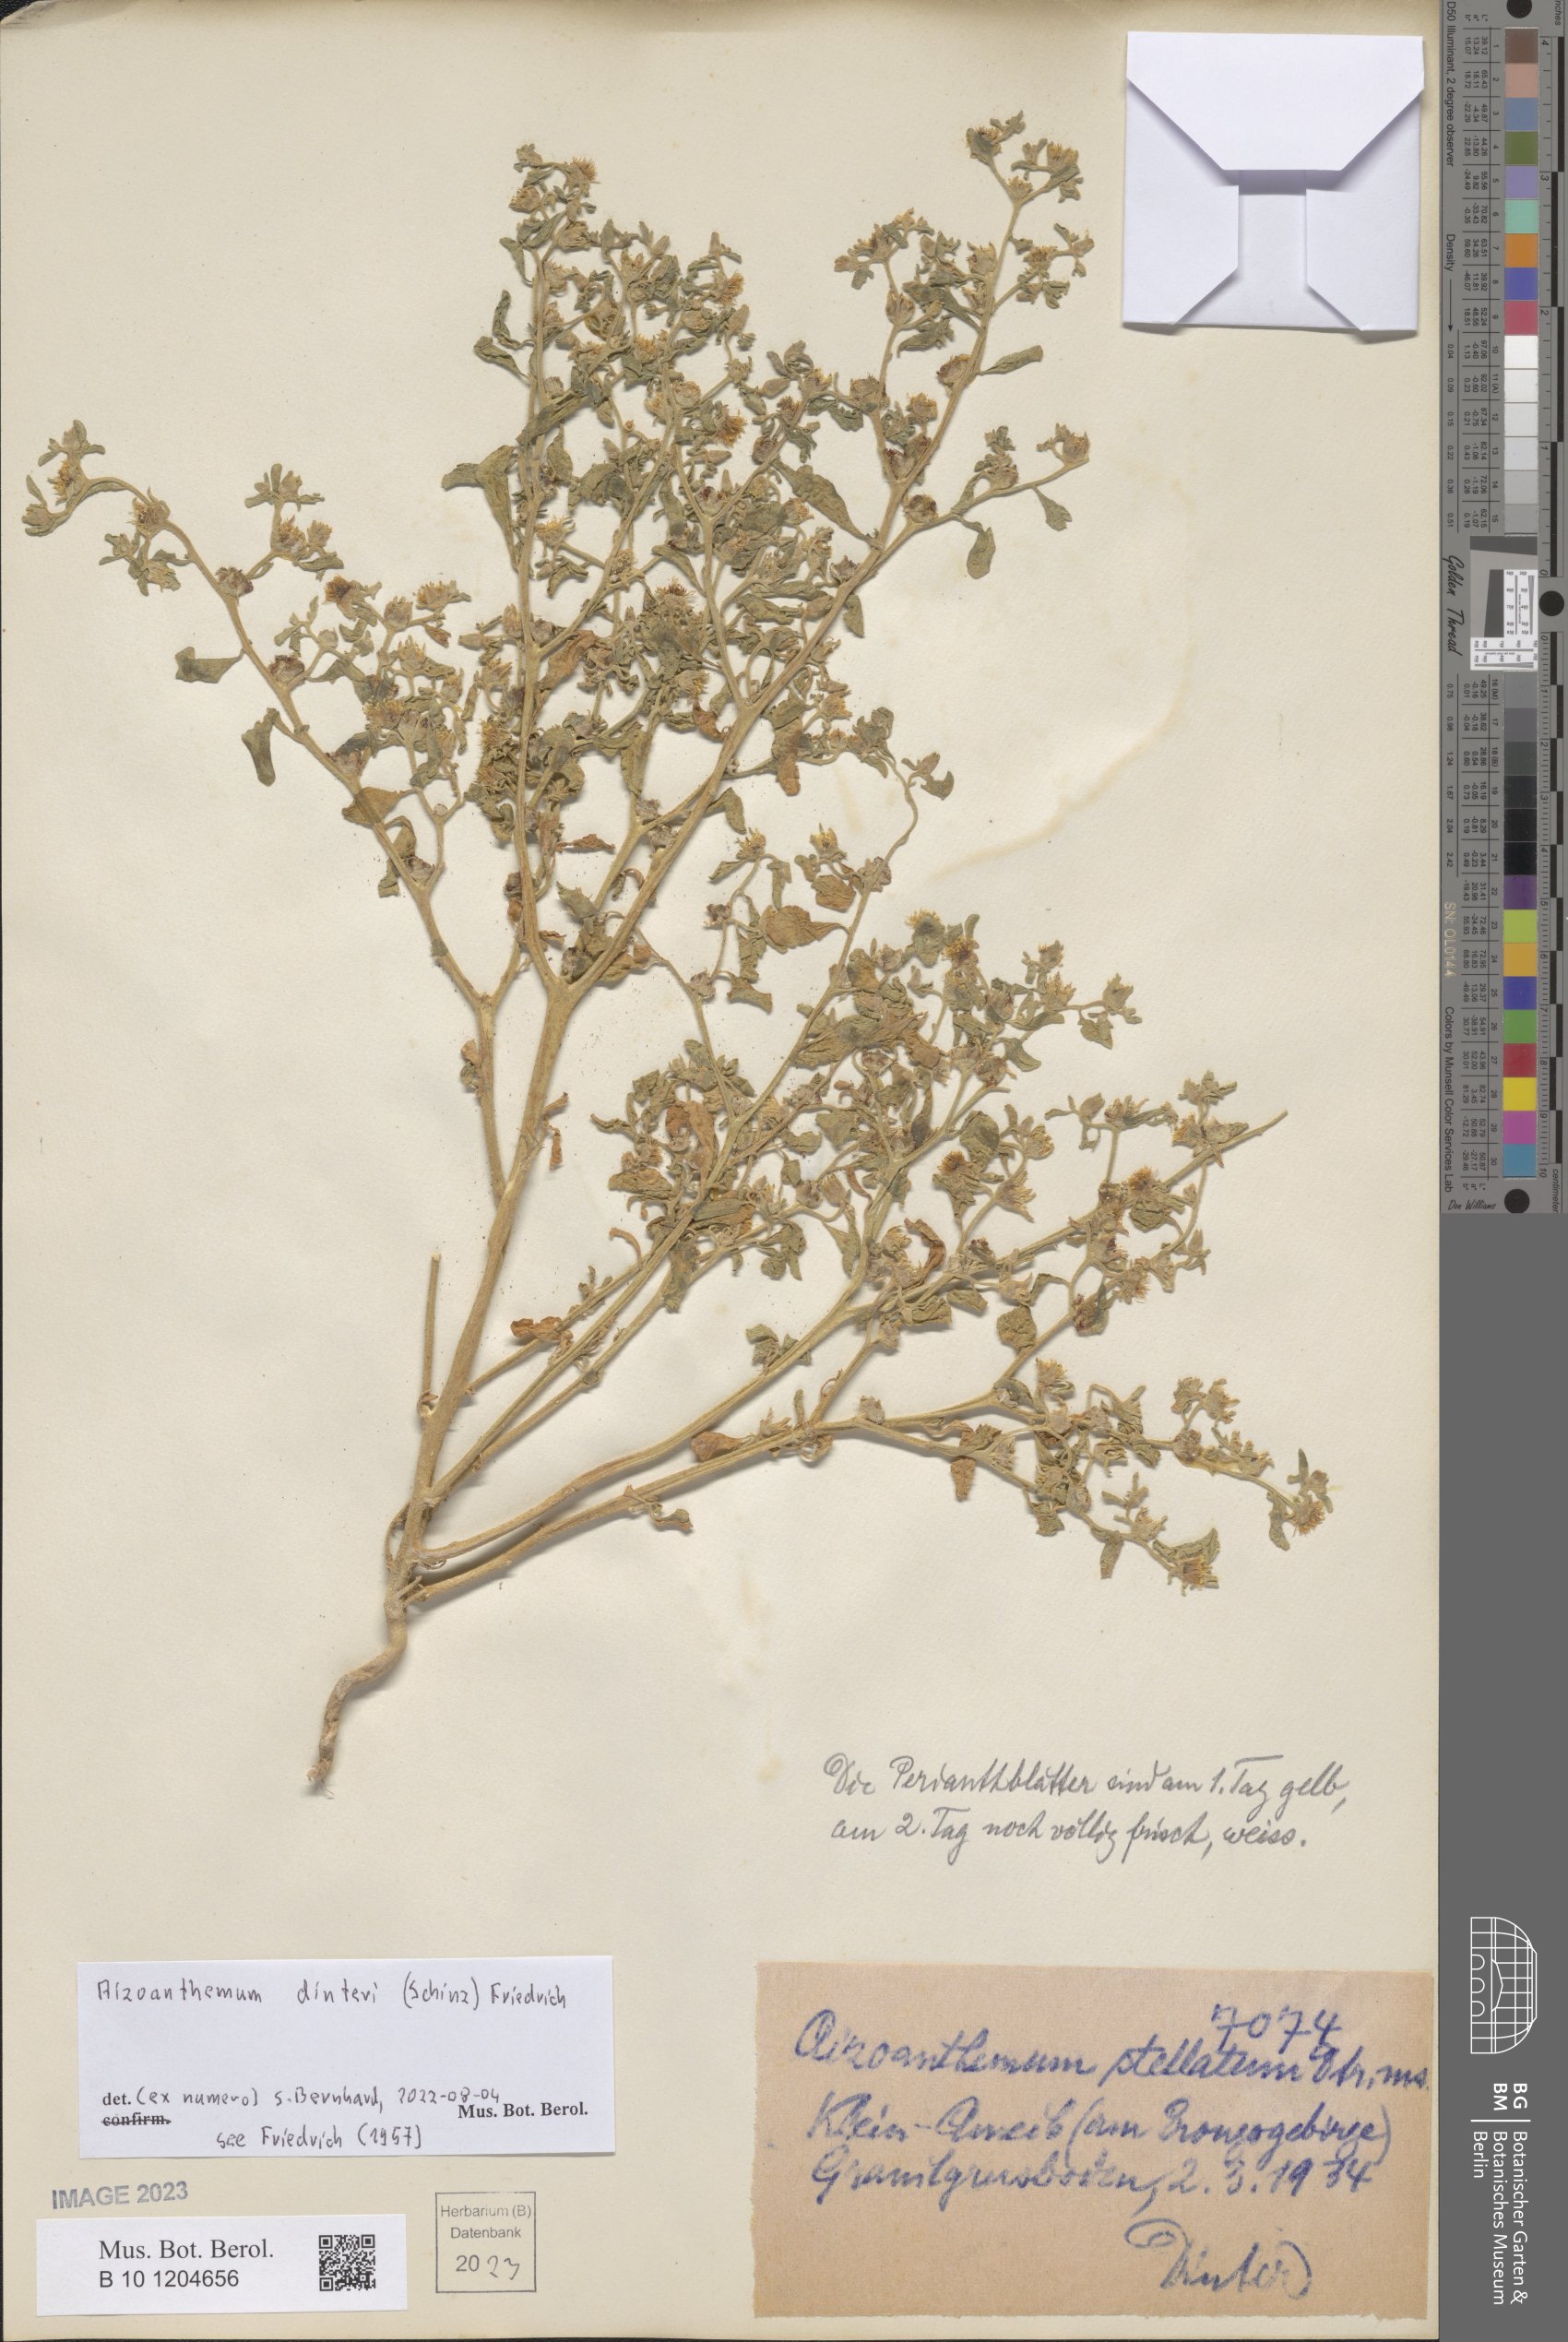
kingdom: Plantae
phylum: Tracheophyta
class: Magnoliopsida
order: Caryophyllales
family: Aizoaceae
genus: Aizoanthemum
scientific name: Aizoanthemum dinteri
